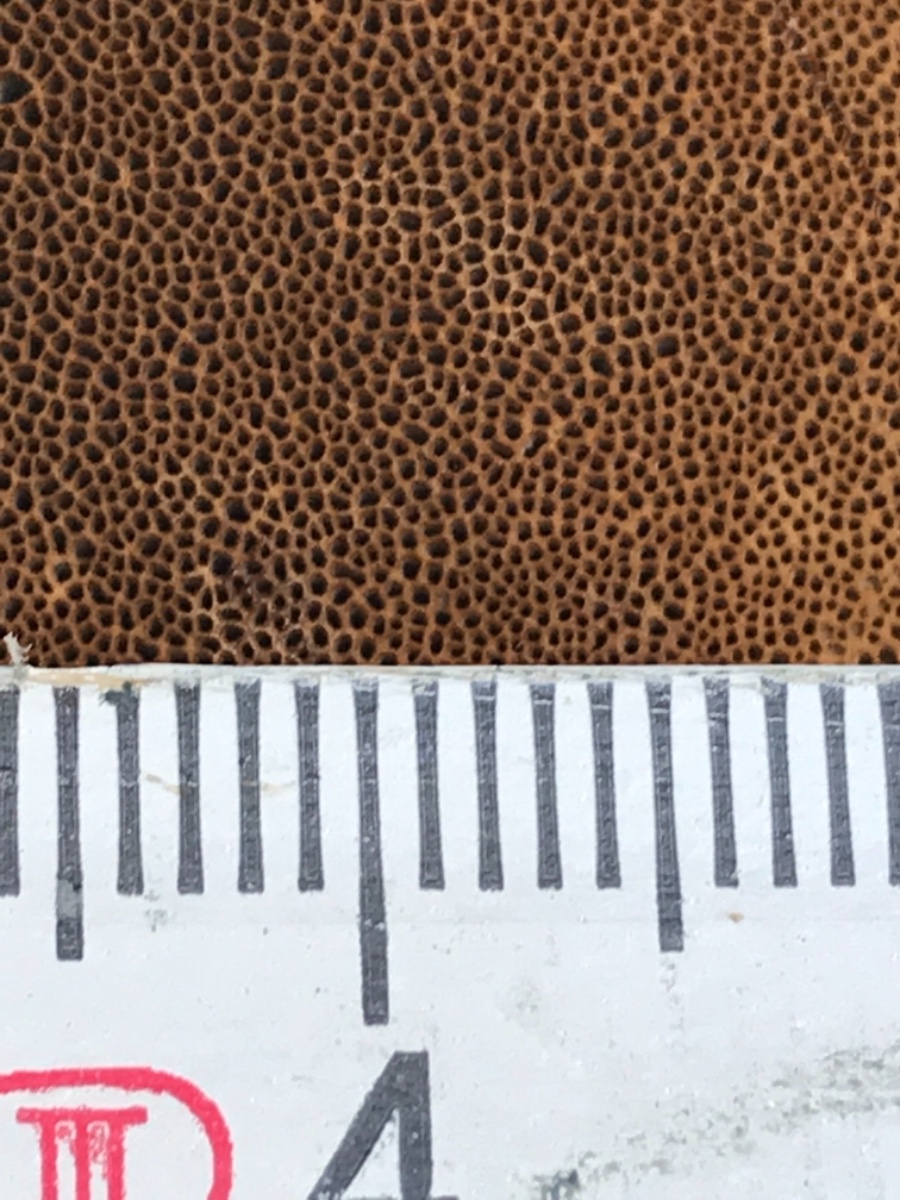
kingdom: Fungi
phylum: Basidiomycota
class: Agaricomycetes
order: Hymenochaetales
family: Hymenochaetaceae
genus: Coltricia
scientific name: Coltricia perennis
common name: almindelig sandporesvamp
